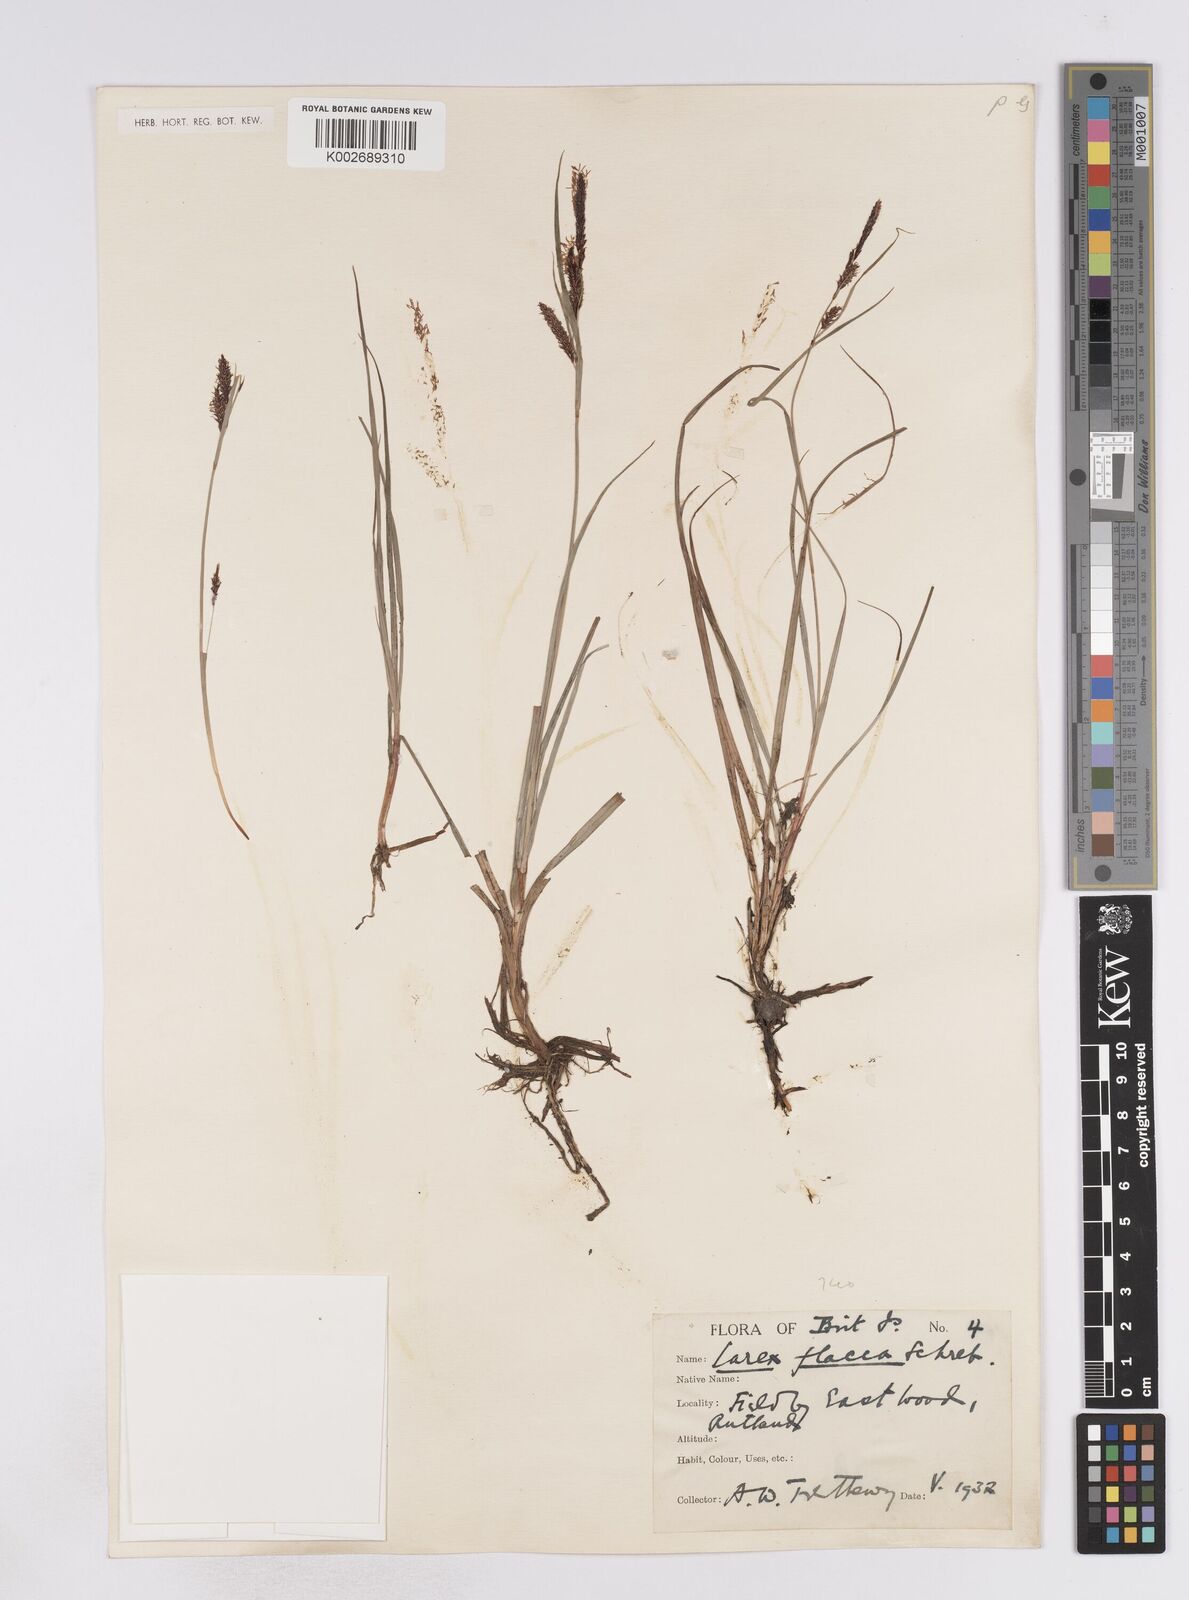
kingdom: Plantae
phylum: Tracheophyta
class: Liliopsida
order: Poales
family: Cyperaceae
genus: Carex
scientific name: Carex flacca
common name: Glaucous sedge
